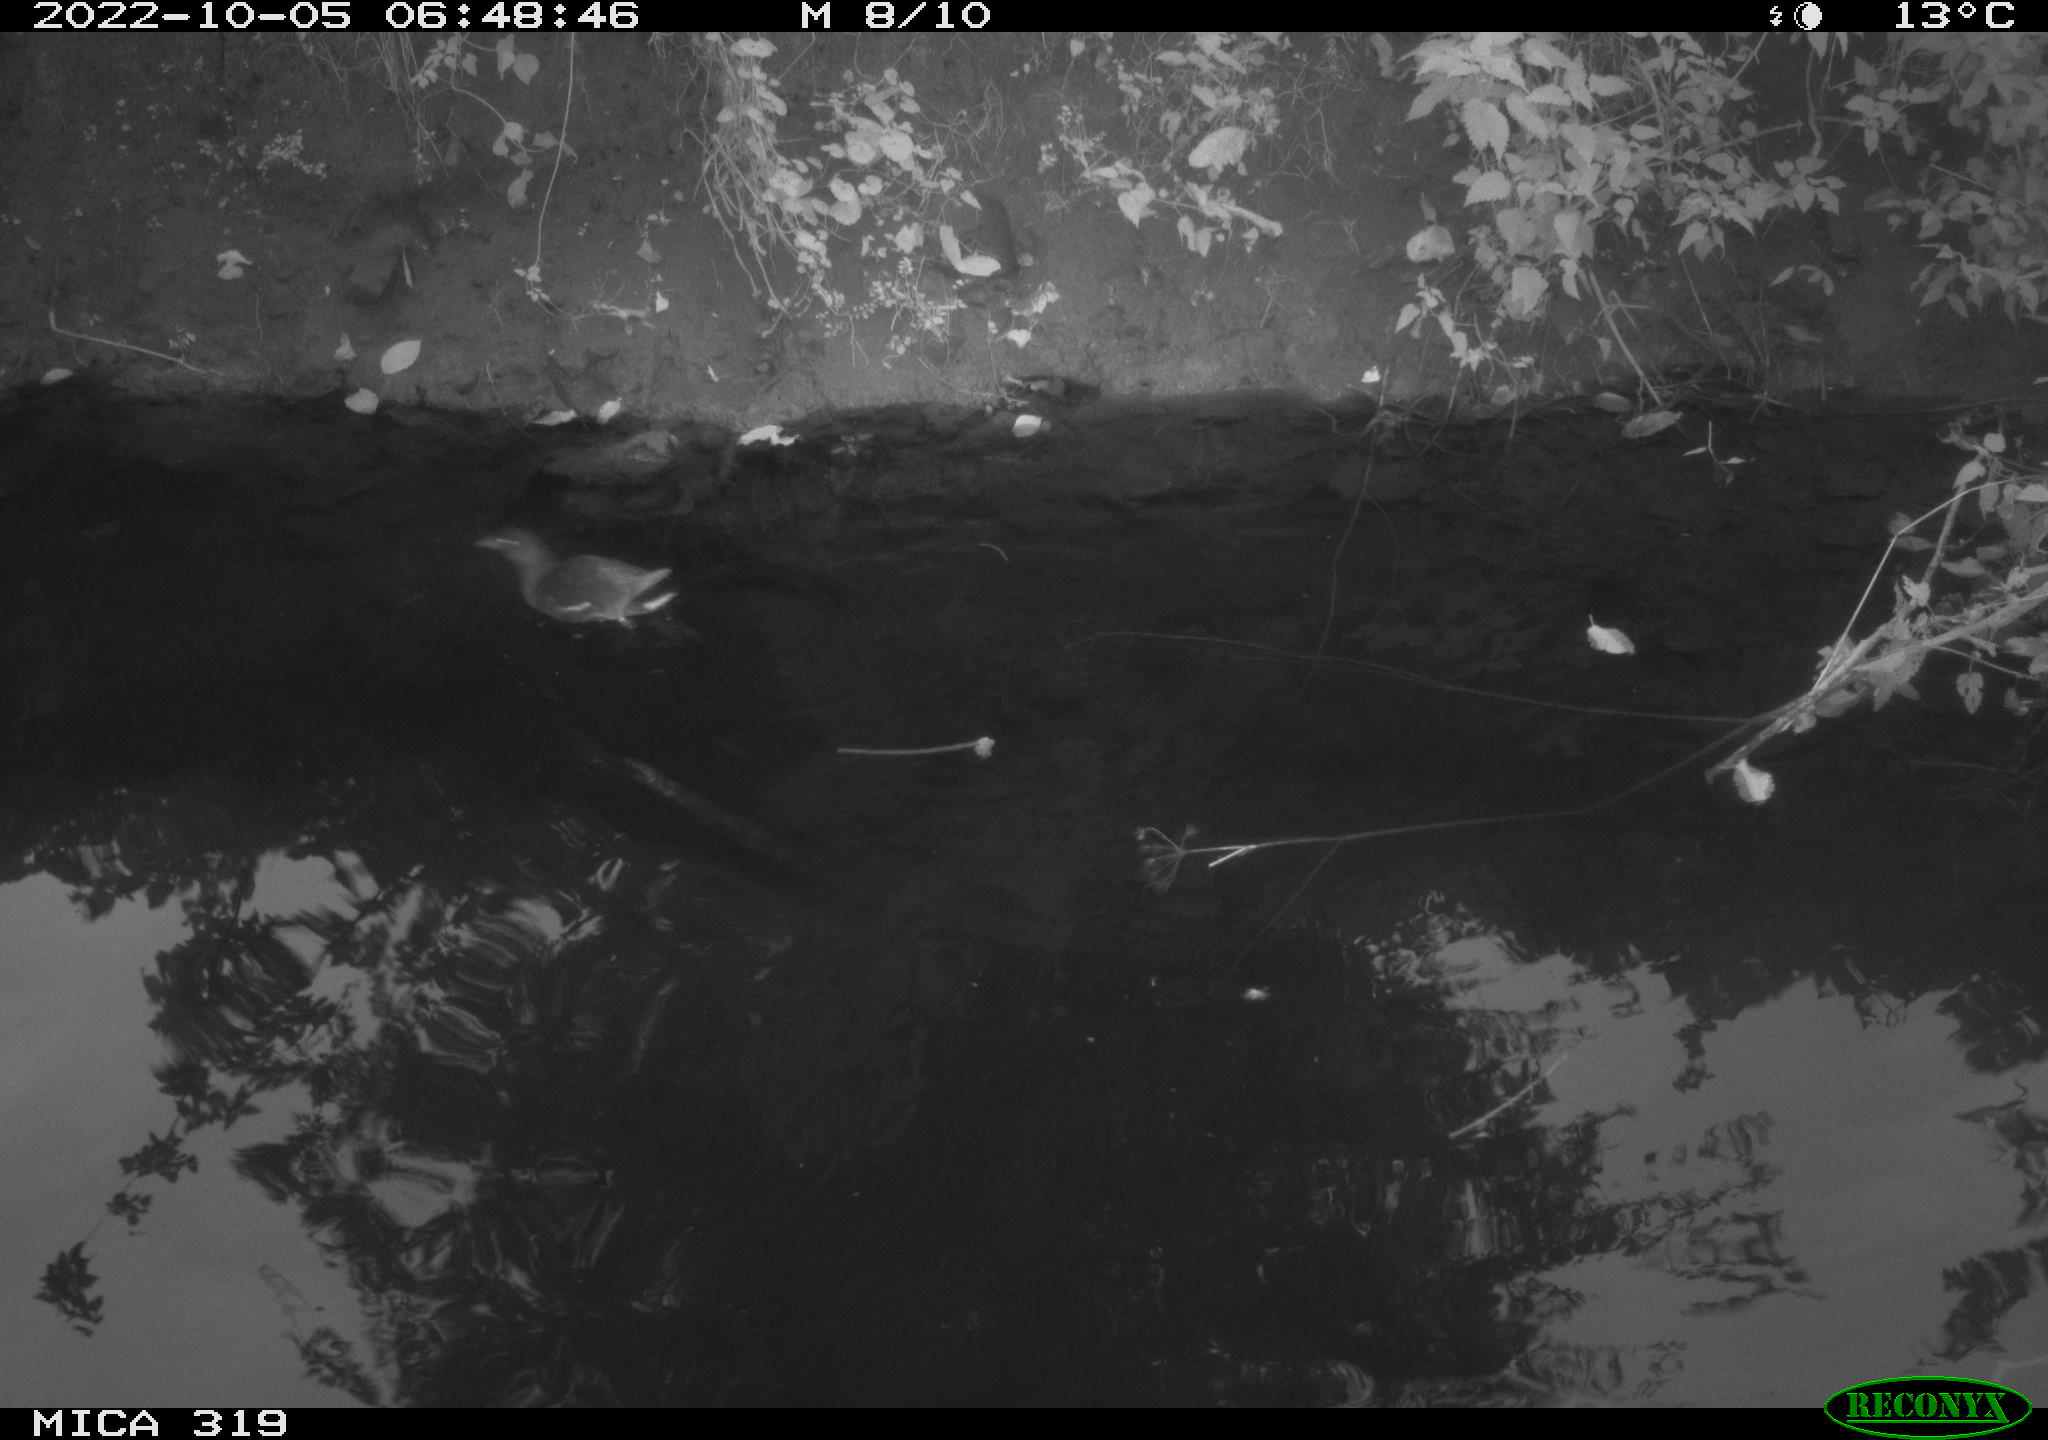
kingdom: Animalia
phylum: Chordata
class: Aves
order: Gruiformes
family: Rallidae
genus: Gallinula
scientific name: Gallinula chloropus
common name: Common moorhen
